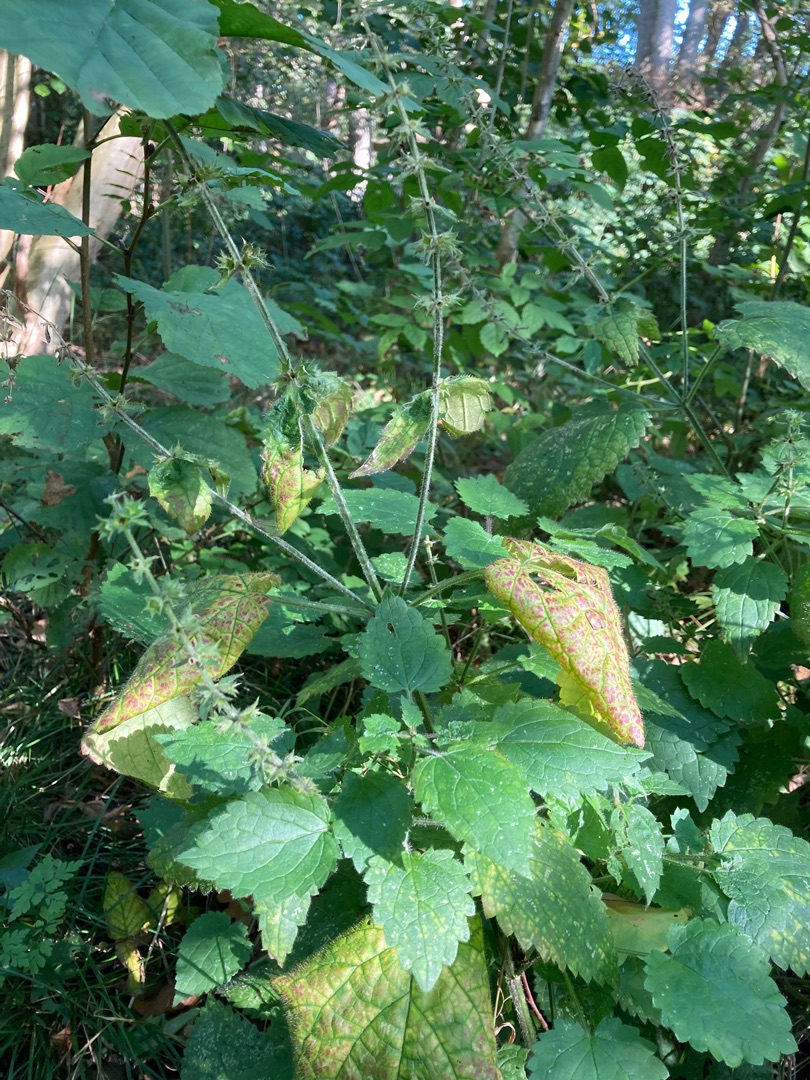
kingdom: Plantae
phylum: Tracheophyta
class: Magnoliopsida
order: Lamiales
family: Lamiaceae
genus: Stachys
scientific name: Stachys sylvatica
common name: Skov-galtetand
